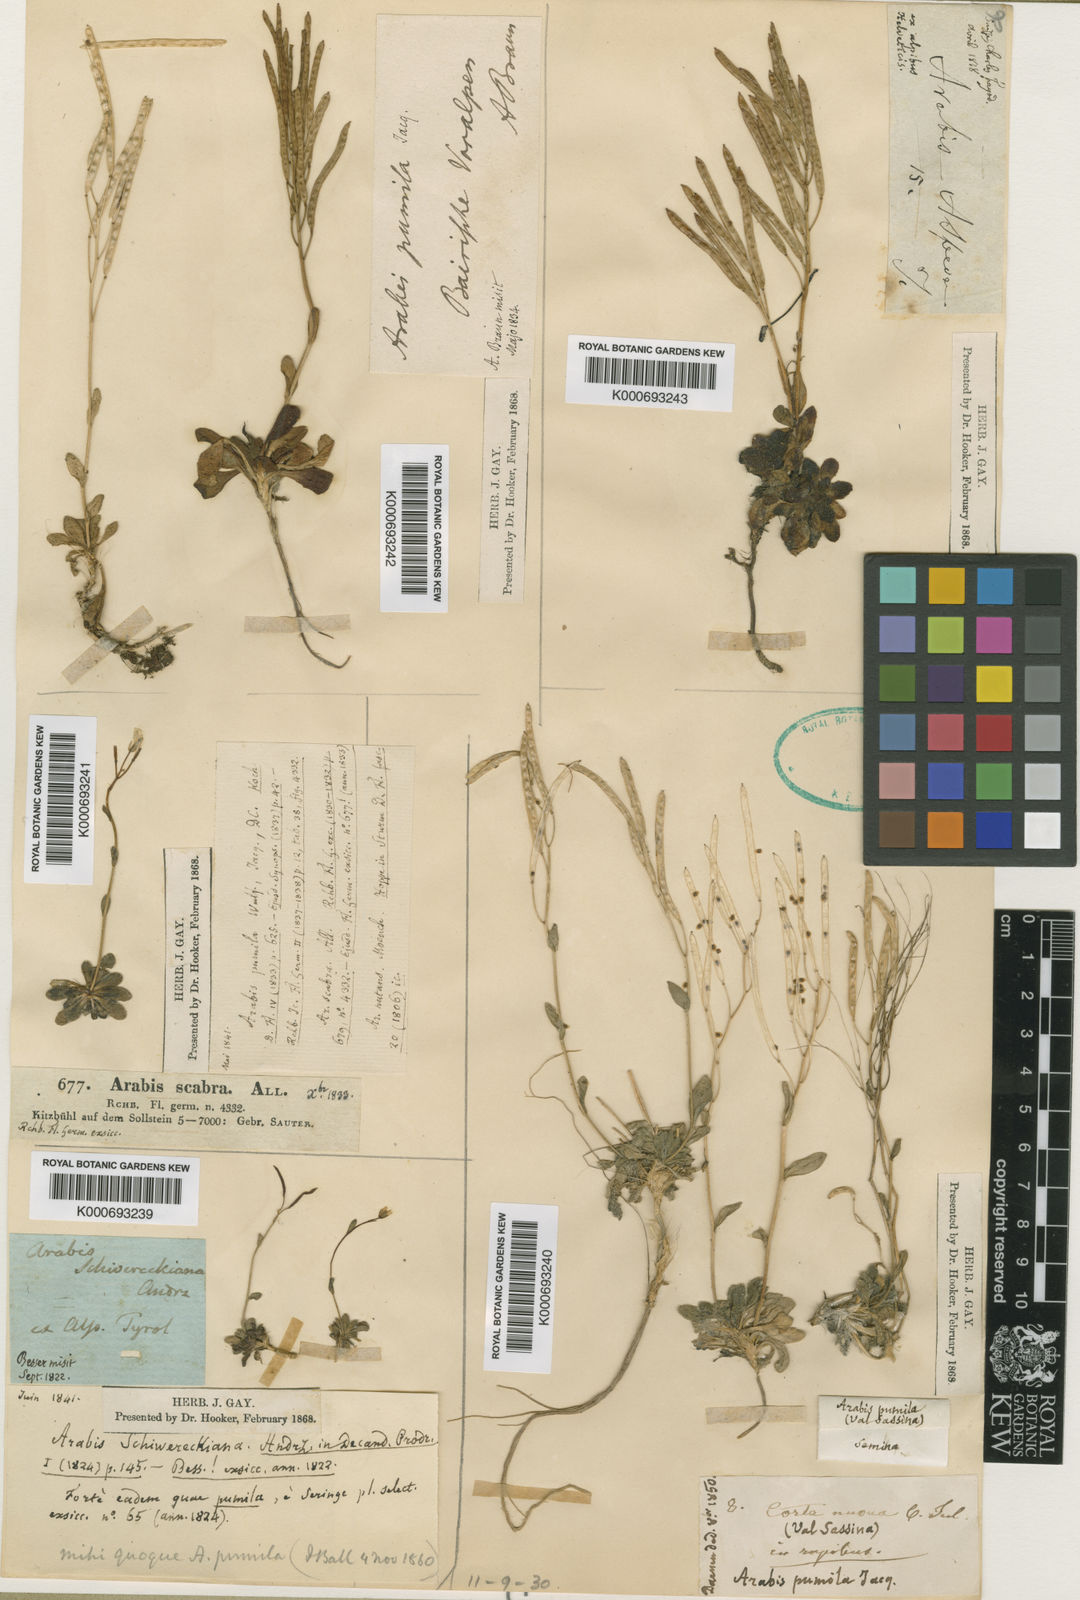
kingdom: Plantae
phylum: Tracheophyta
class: Magnoliopsida
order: Brassicales
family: Brassicaceae
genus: Arabis
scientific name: Arabis pumila
